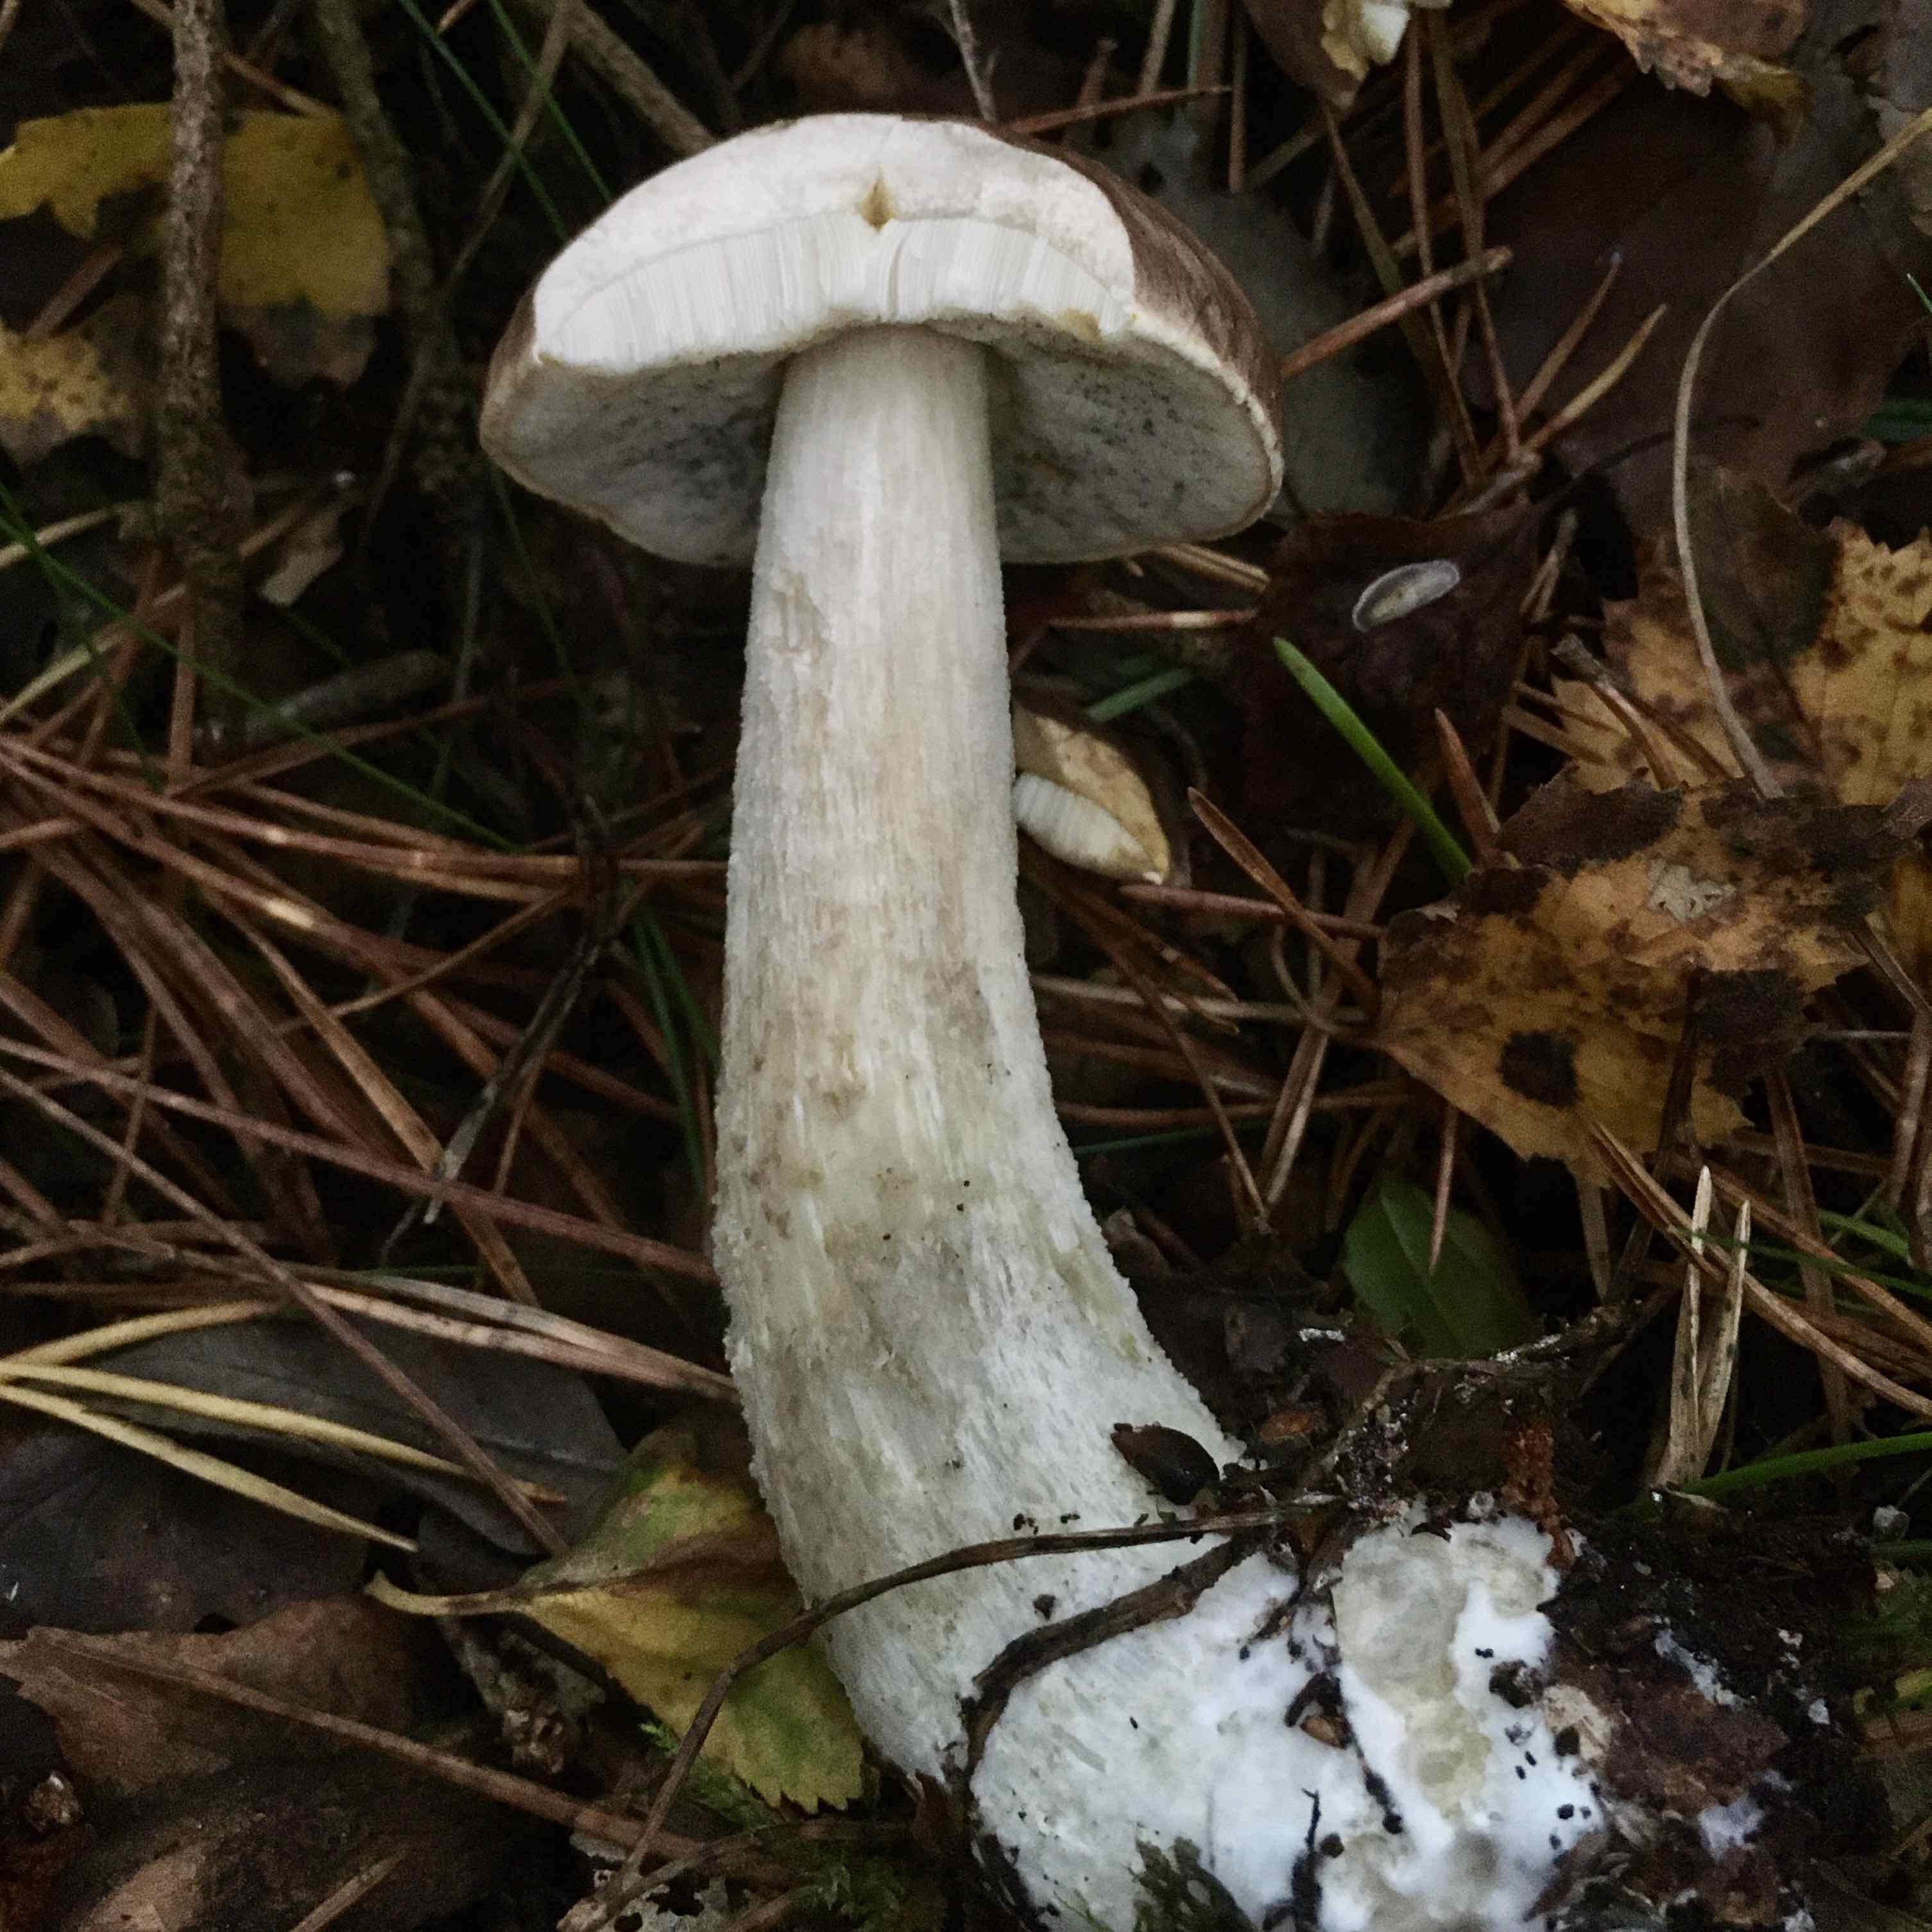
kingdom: Fungi
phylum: Basidiomycota
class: Agaricomycetes
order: Boletales
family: Boletaceae
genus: Leccinum
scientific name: Leccinum scabrum
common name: brun skælrørhat
